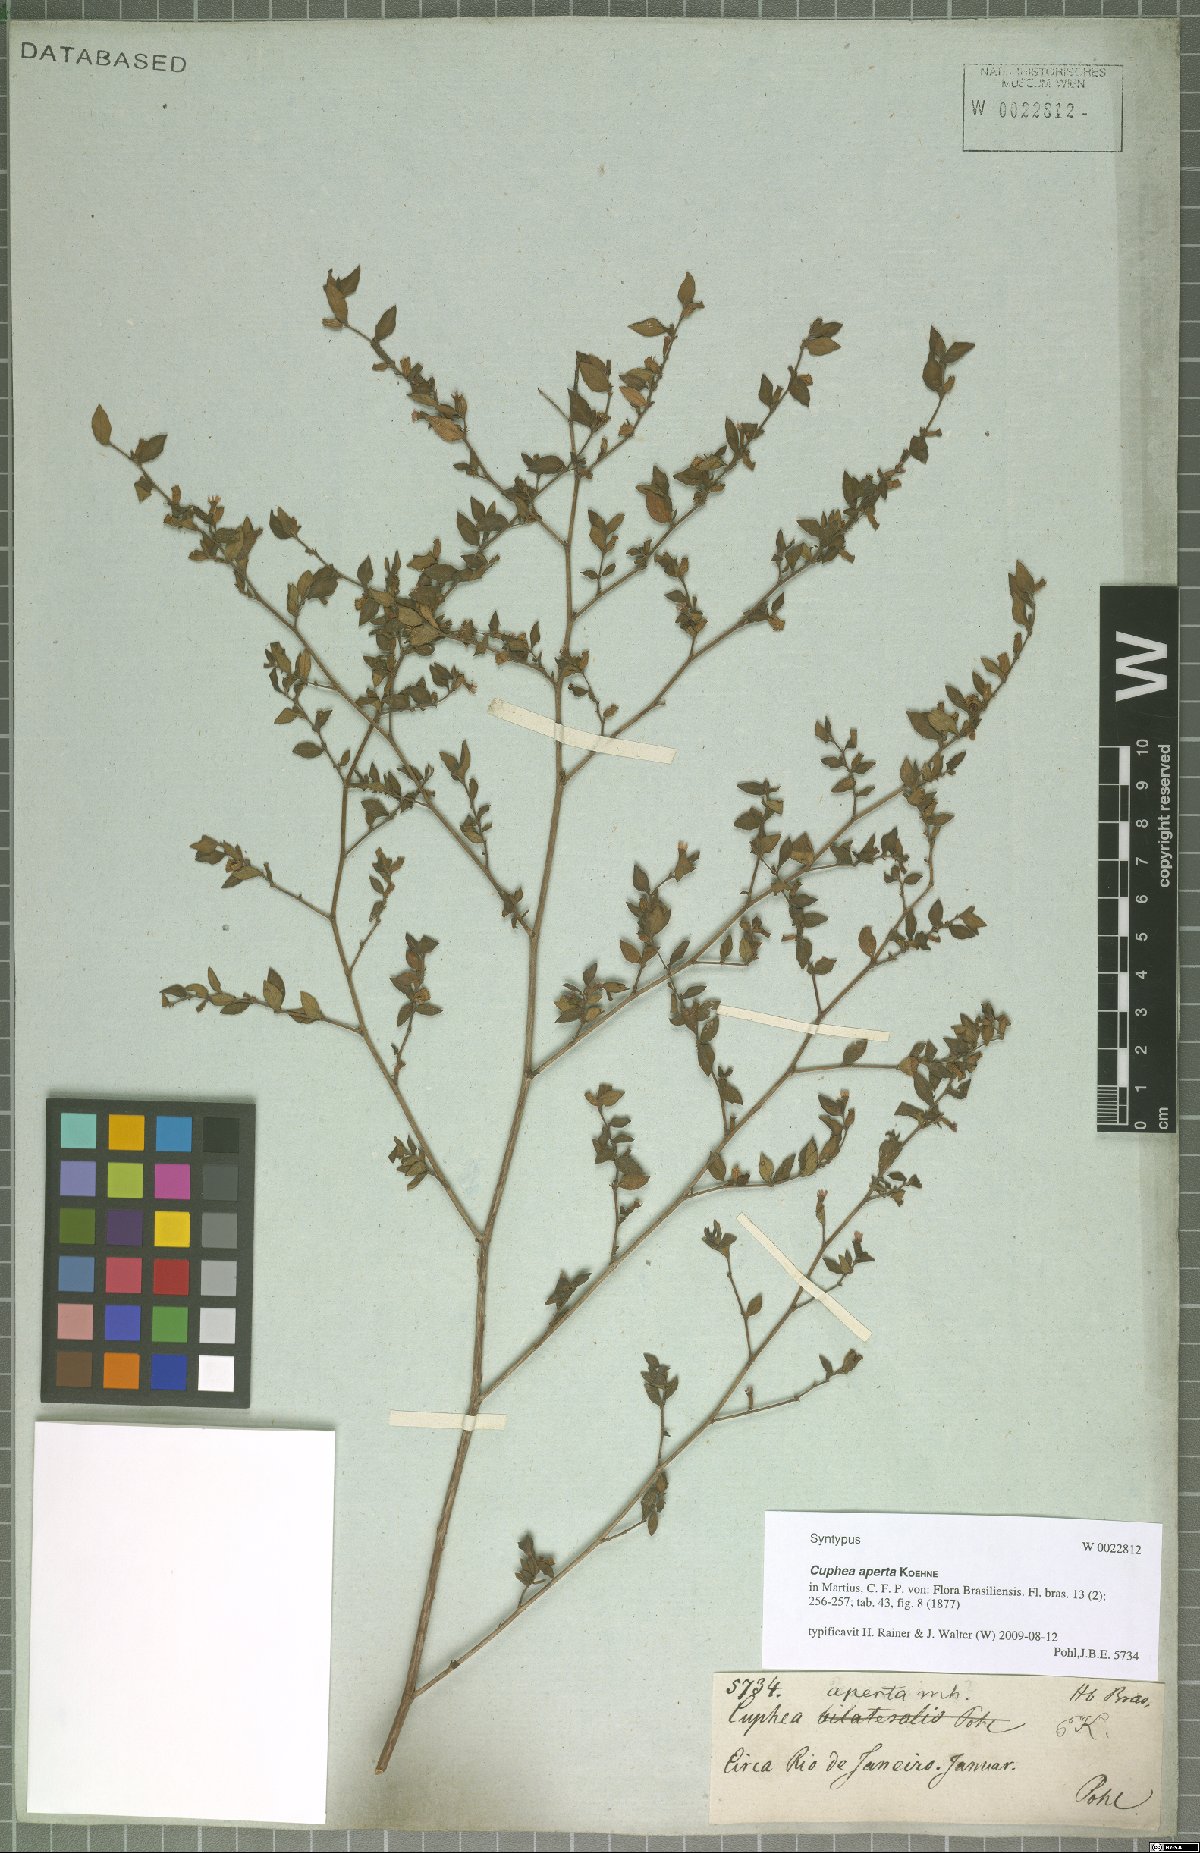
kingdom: Plantae
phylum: Tracheophyta
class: Magnoliopsida
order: Myrtales
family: Lythraceae
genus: Cuphea
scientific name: Cuphea aperta
